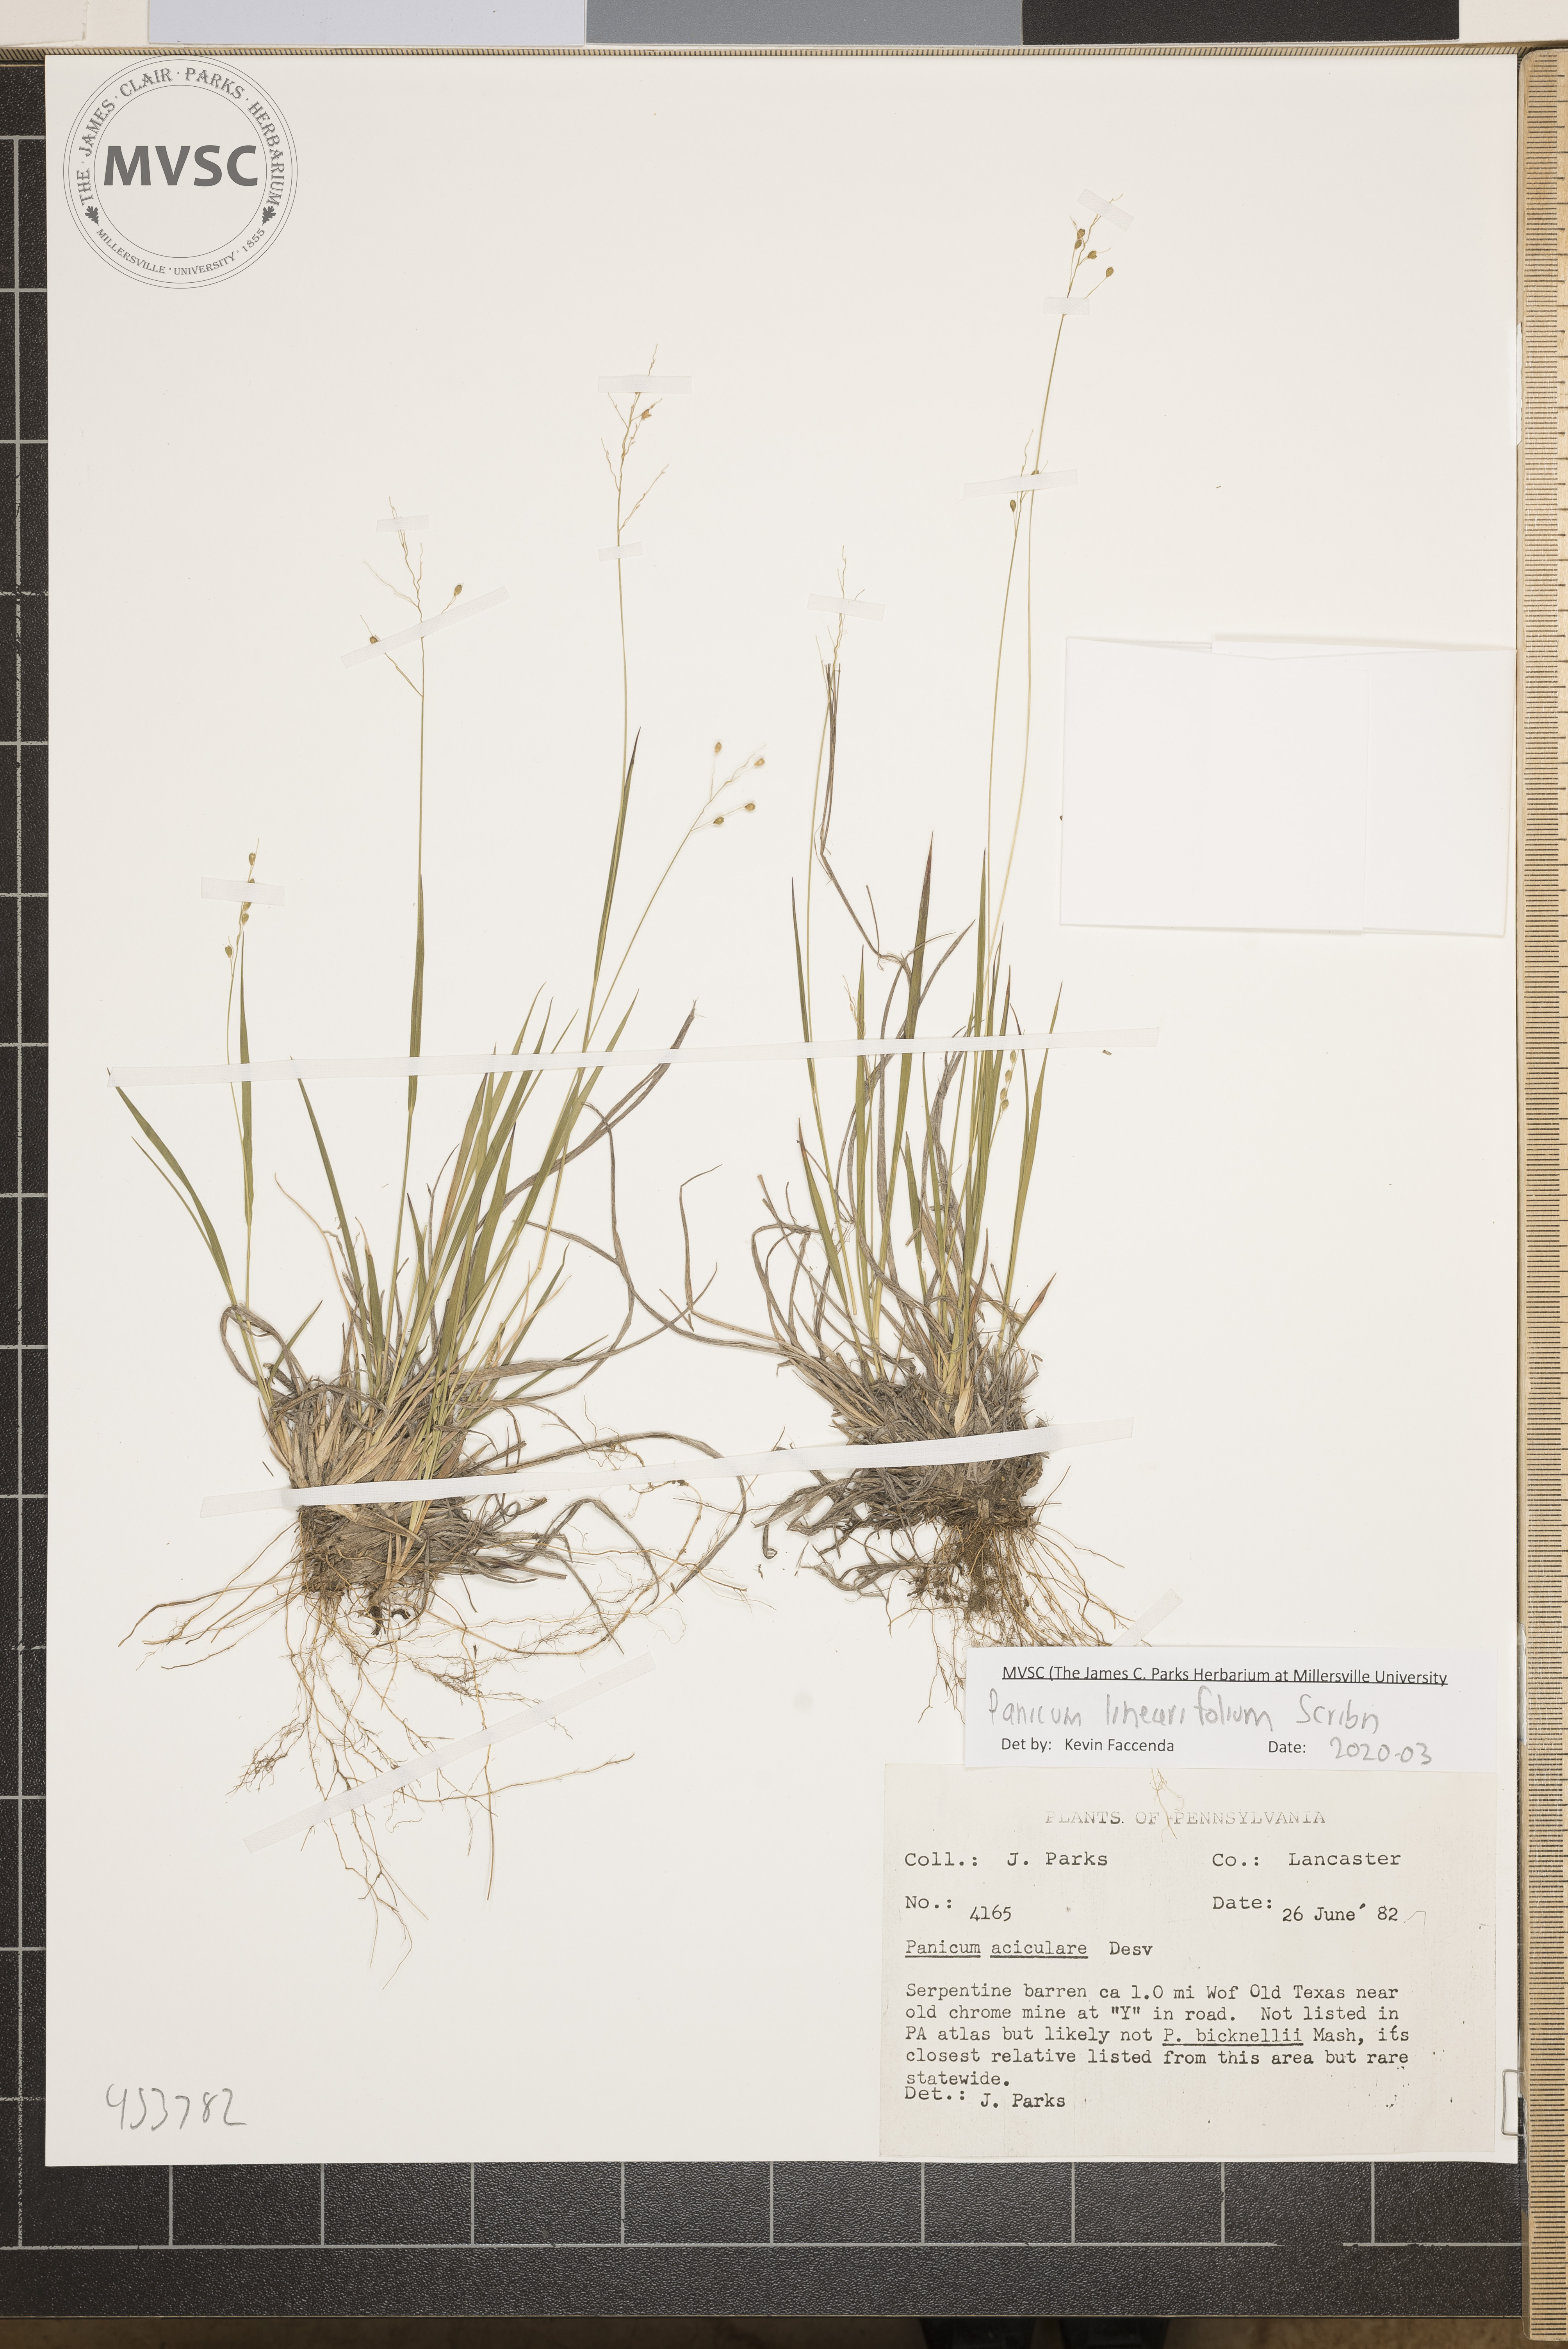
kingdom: Plantae
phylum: Tracheophyta
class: Liliopsida
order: Poales
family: Poaceae
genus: Dichanthelium
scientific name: Dichanthelium linearifolium
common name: Linear-leaved panicgrass
